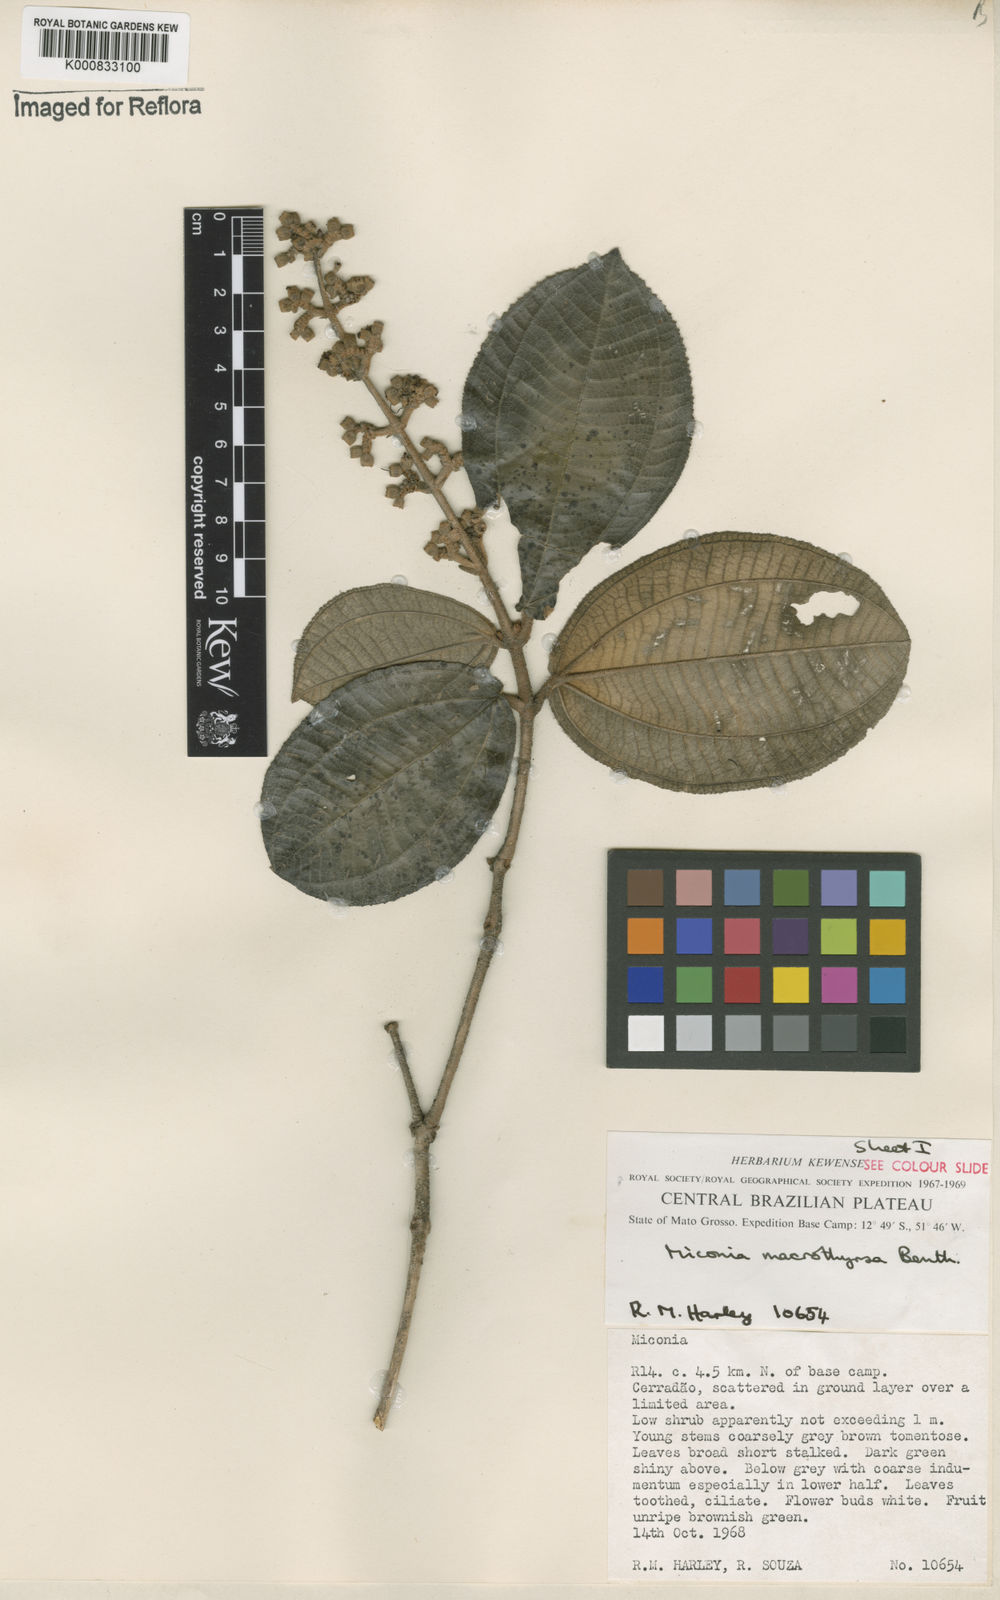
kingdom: Plantae
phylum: Tracheophyta
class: Magnoliopsida
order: Myrtales
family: Melastomataceae
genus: Miconia
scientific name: Miconia macrothyrsa
